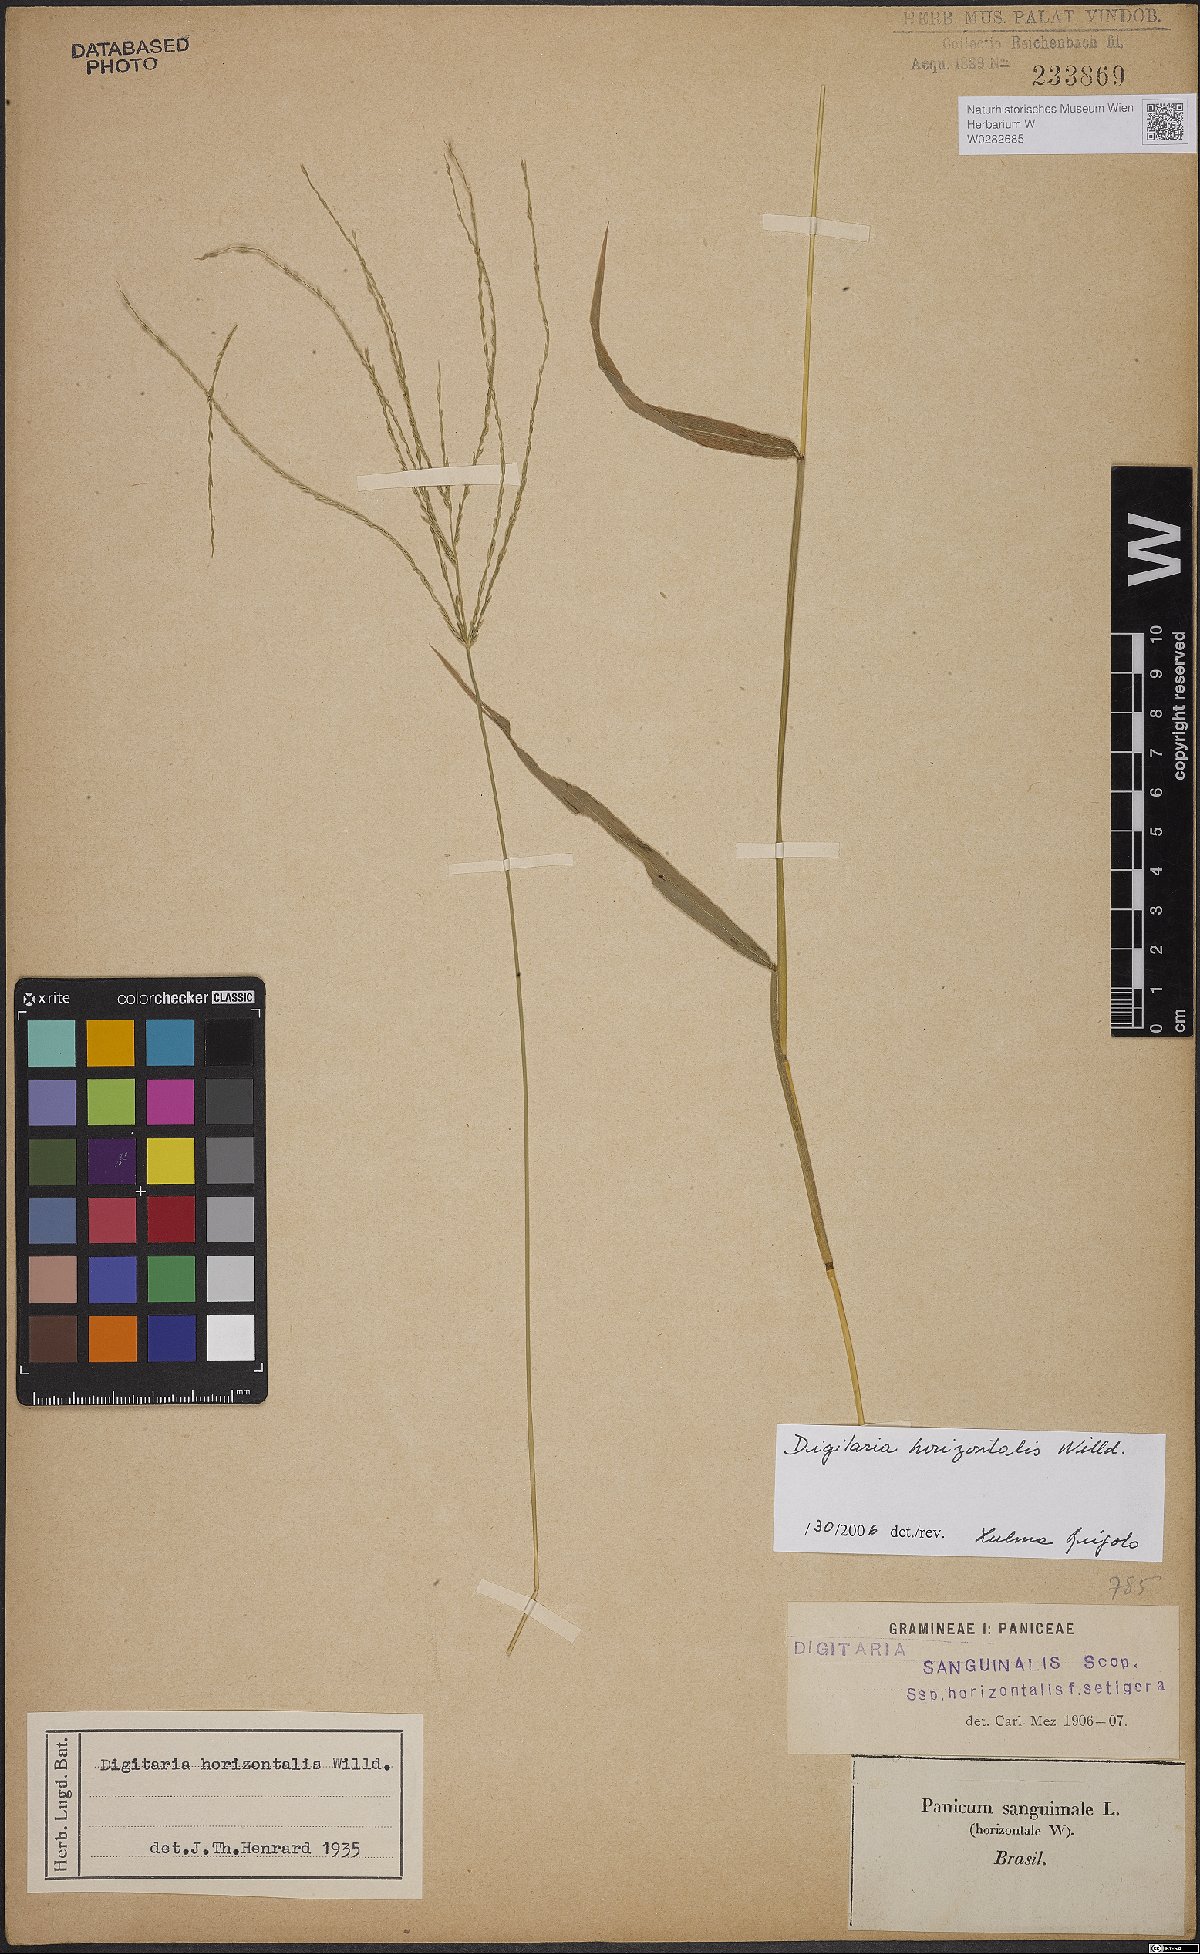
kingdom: Plantae
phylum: Tracheophyta
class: Liliopsida
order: Poales
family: Poaceae
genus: Digitaria
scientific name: Digitaria horizontalis
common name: Jamaican crabgrass
